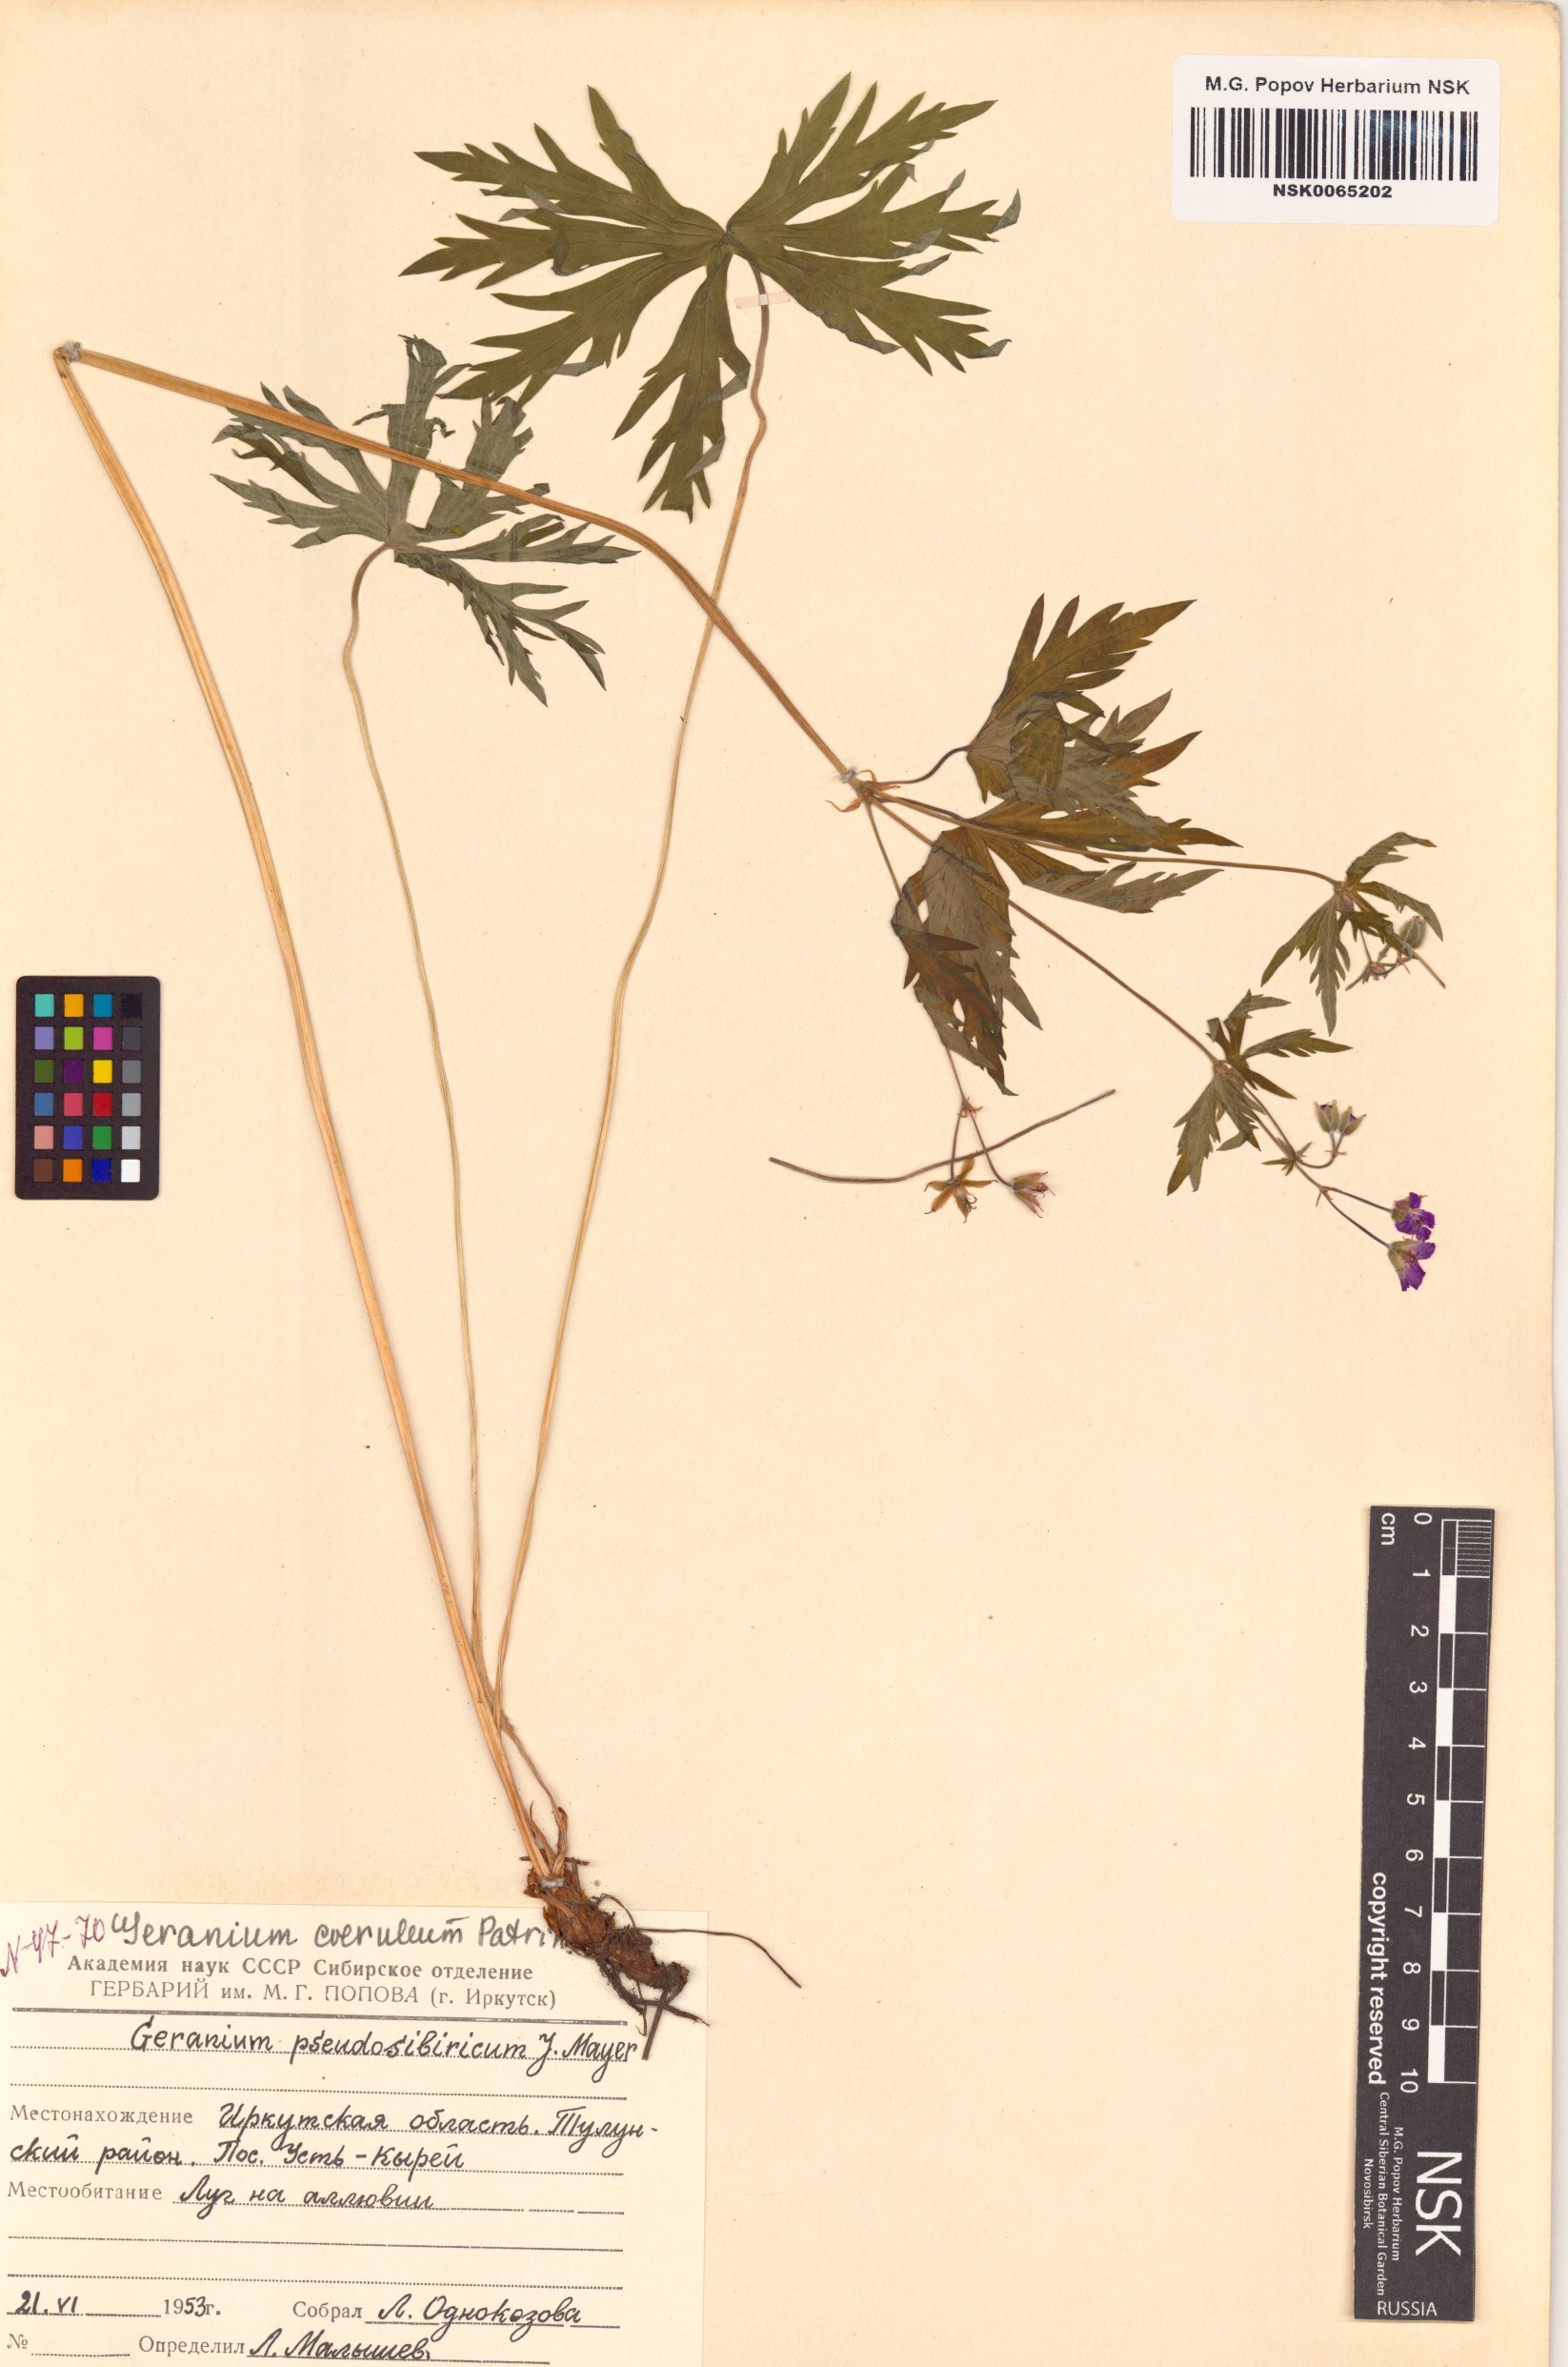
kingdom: Plantae
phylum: Tracheophyta
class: Magnoliopsida
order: Geraniales
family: Geraniaceae
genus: Geranium
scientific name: Geranium pseudosibiricum
